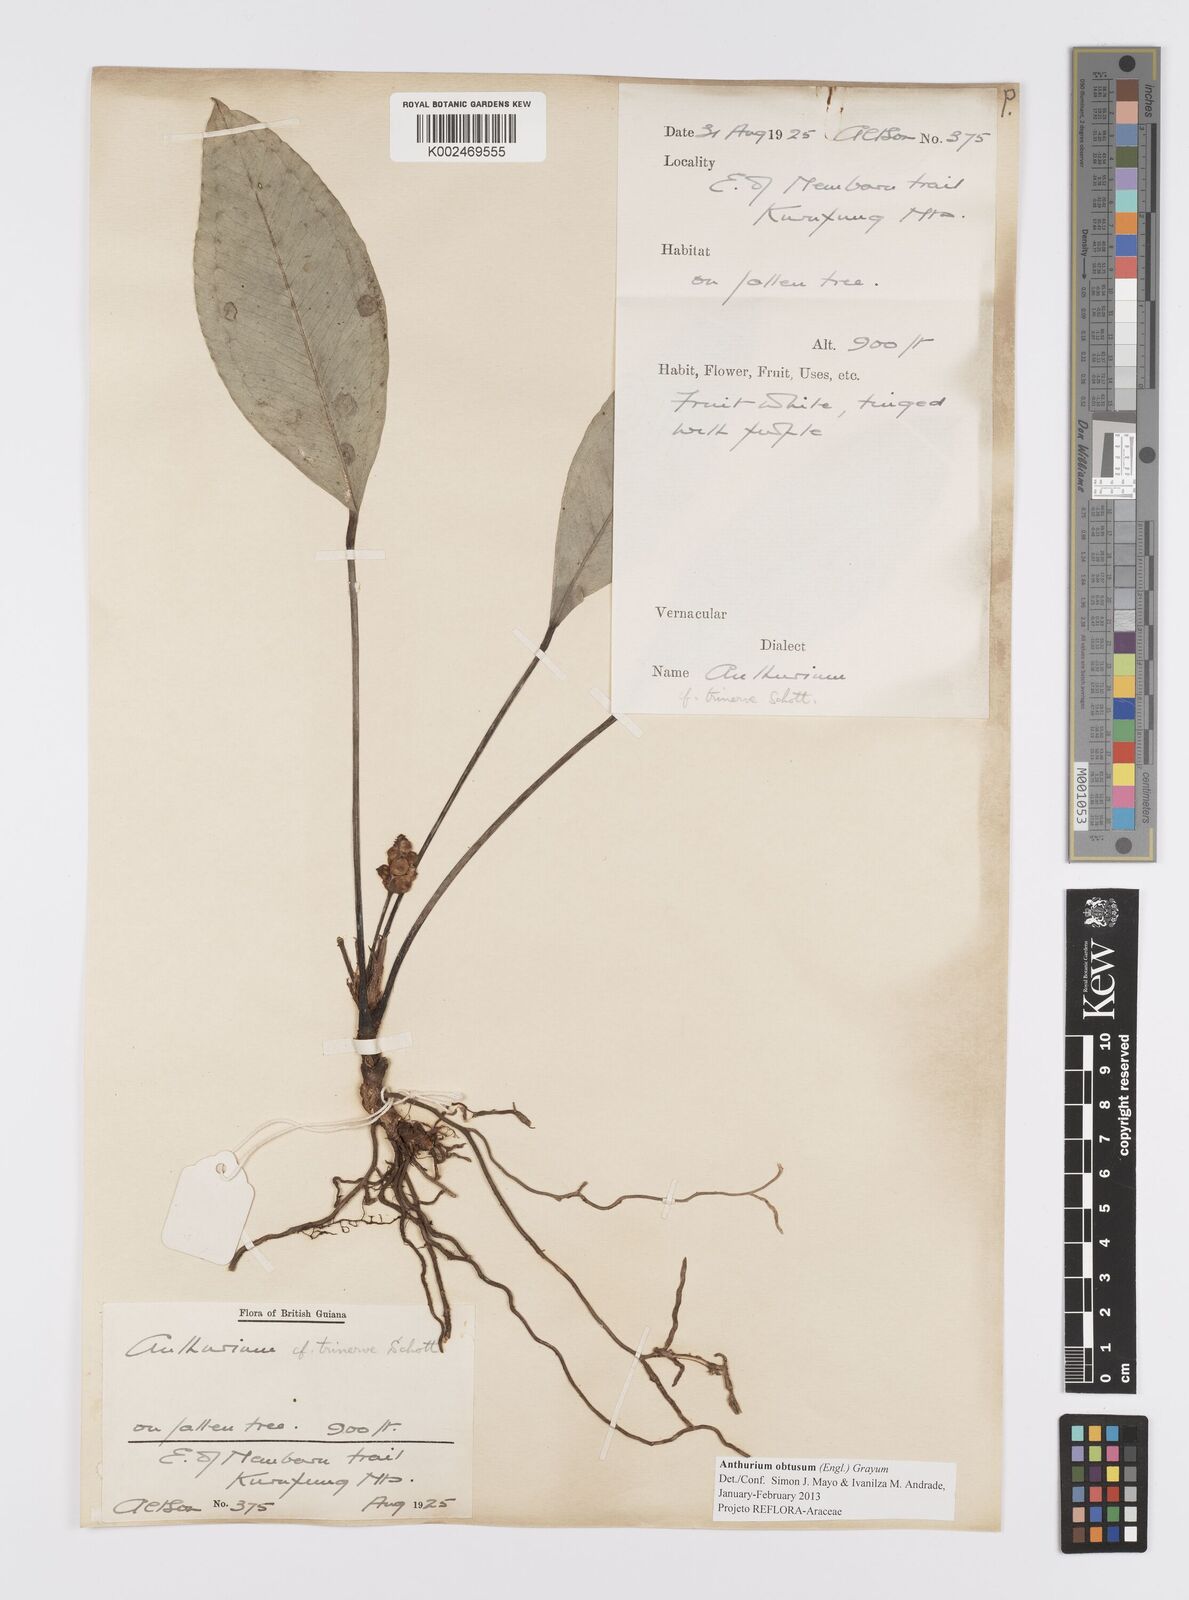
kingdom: Plantae
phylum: Tracheophyta
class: Liliopsida
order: Alismatales
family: Araceae
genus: Anthurium
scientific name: Anthurium obtusum
